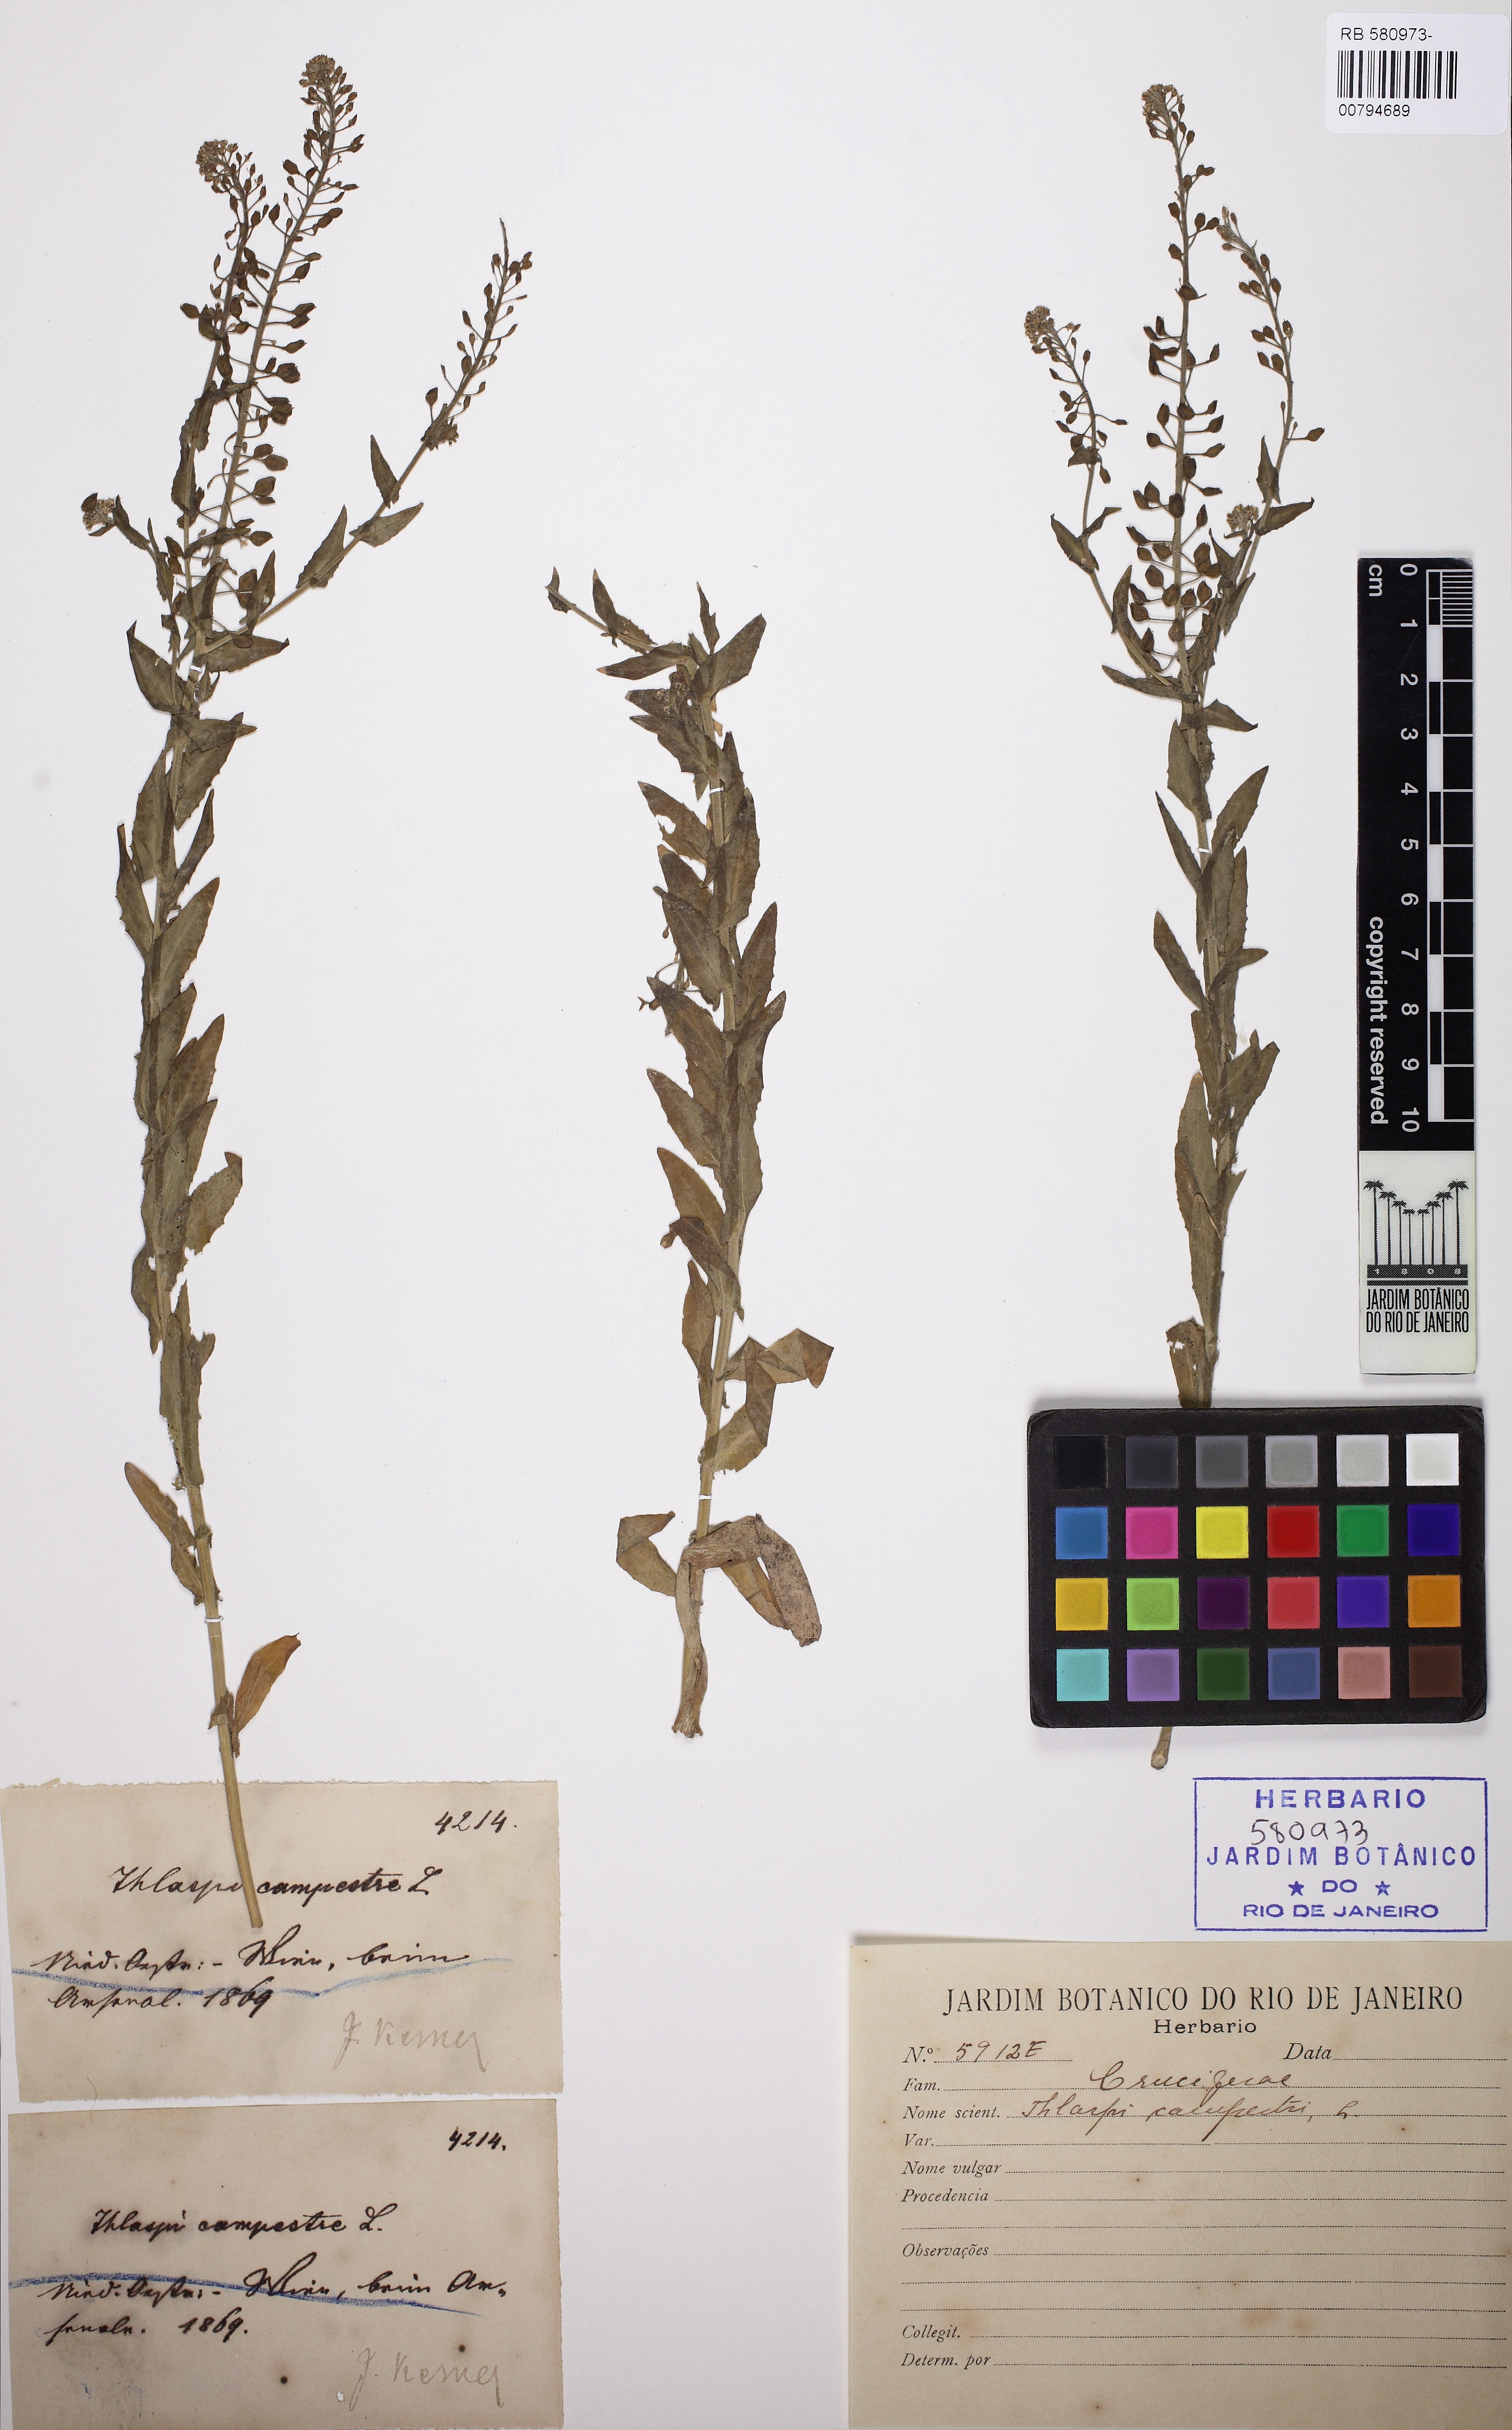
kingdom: Plantae
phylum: Tracheophyta
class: Magnoliopsida
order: Brassicales
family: Brassicaceae
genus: Lepidium
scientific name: Lepidium campestre
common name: Field pepperwort
